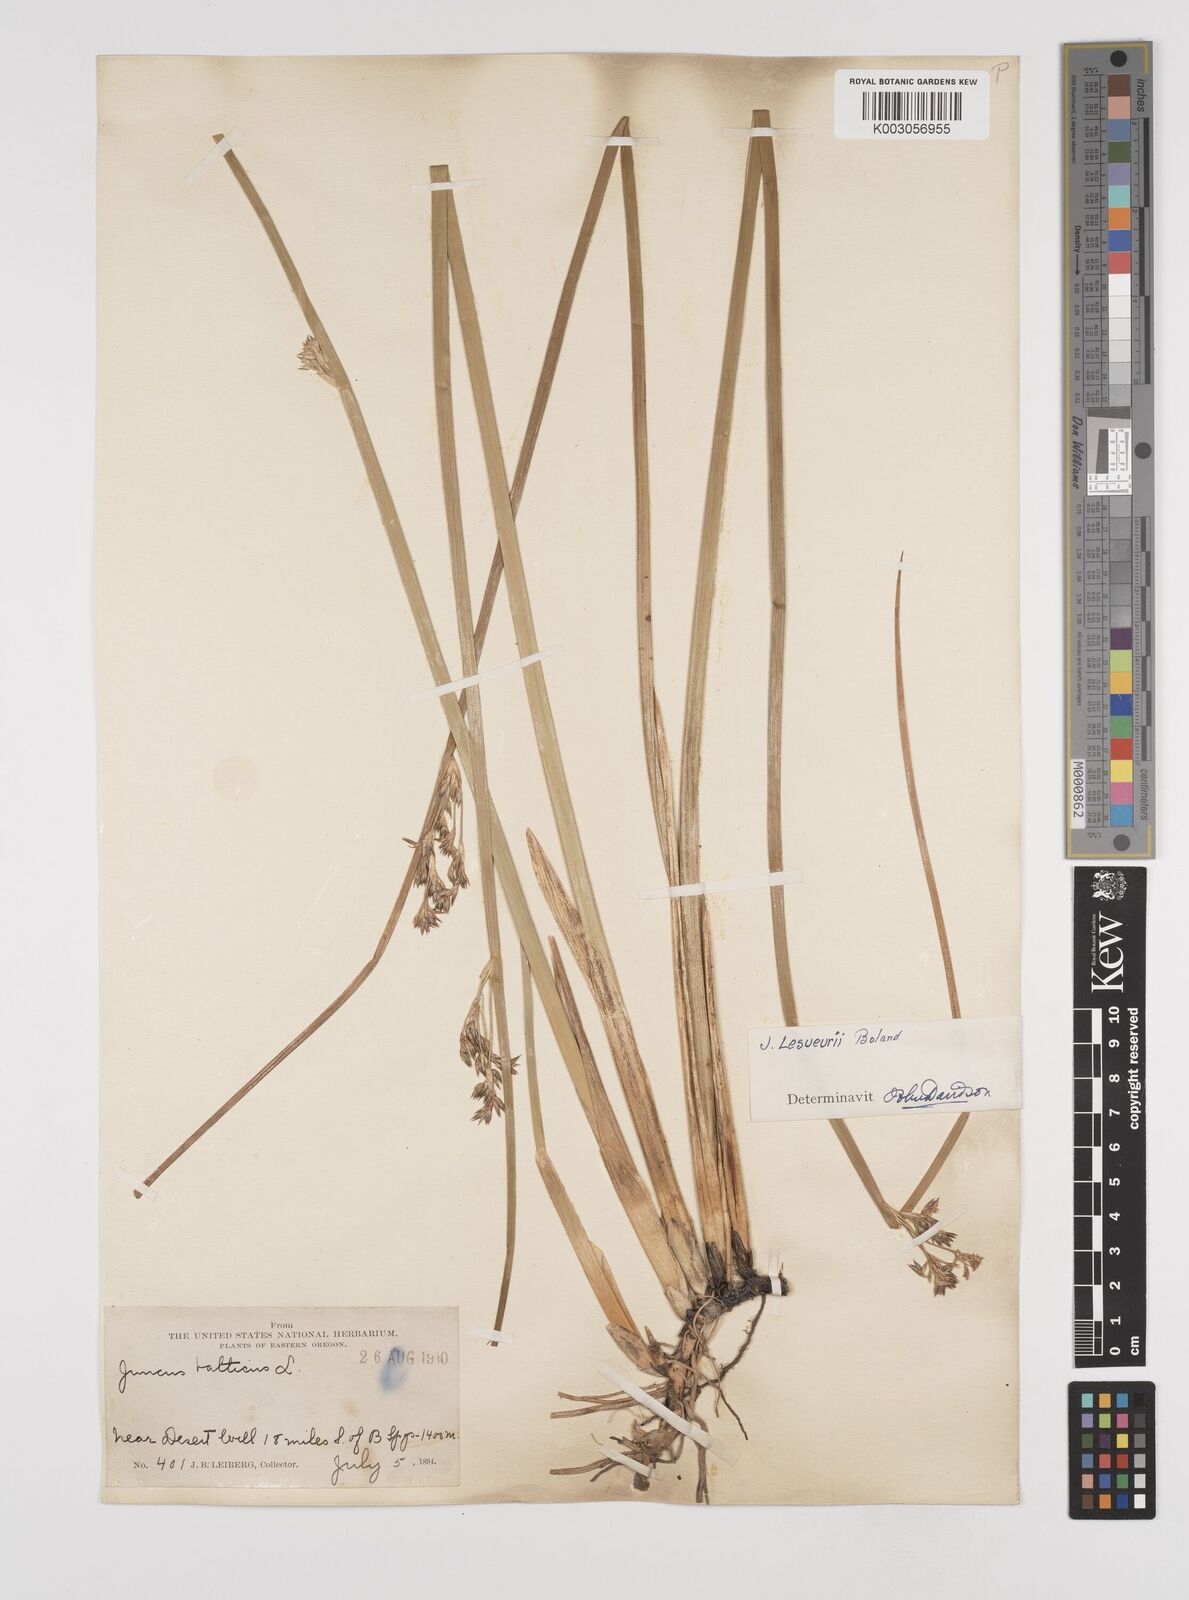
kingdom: Plantae
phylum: Tracheophyta
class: Liliopsida
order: Poales
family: Juncaceae
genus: Juncus
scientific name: Juncus lesueurii
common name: Lesueur's rush
